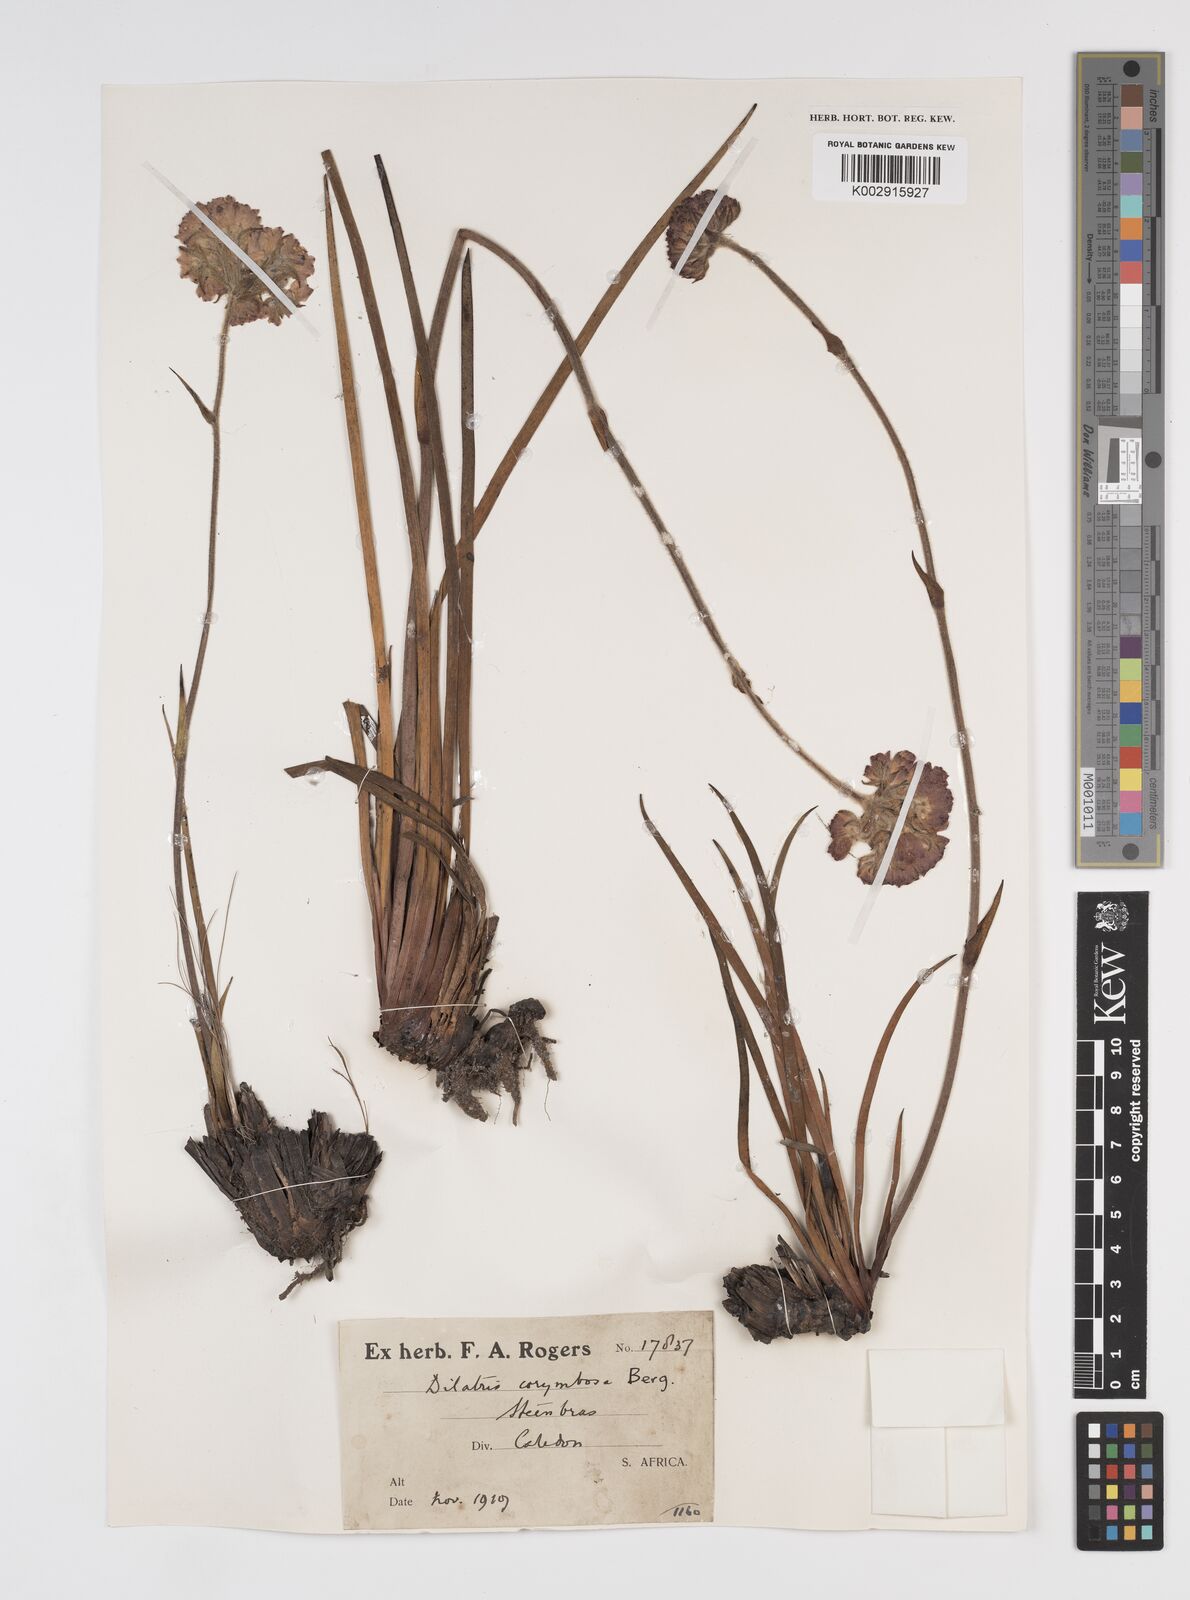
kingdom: Plantae
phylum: Tracheophyta
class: Liliopsida
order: Commelinales
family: Haemodoraceae
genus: Dilatris
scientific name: Dilatris corymbosa
